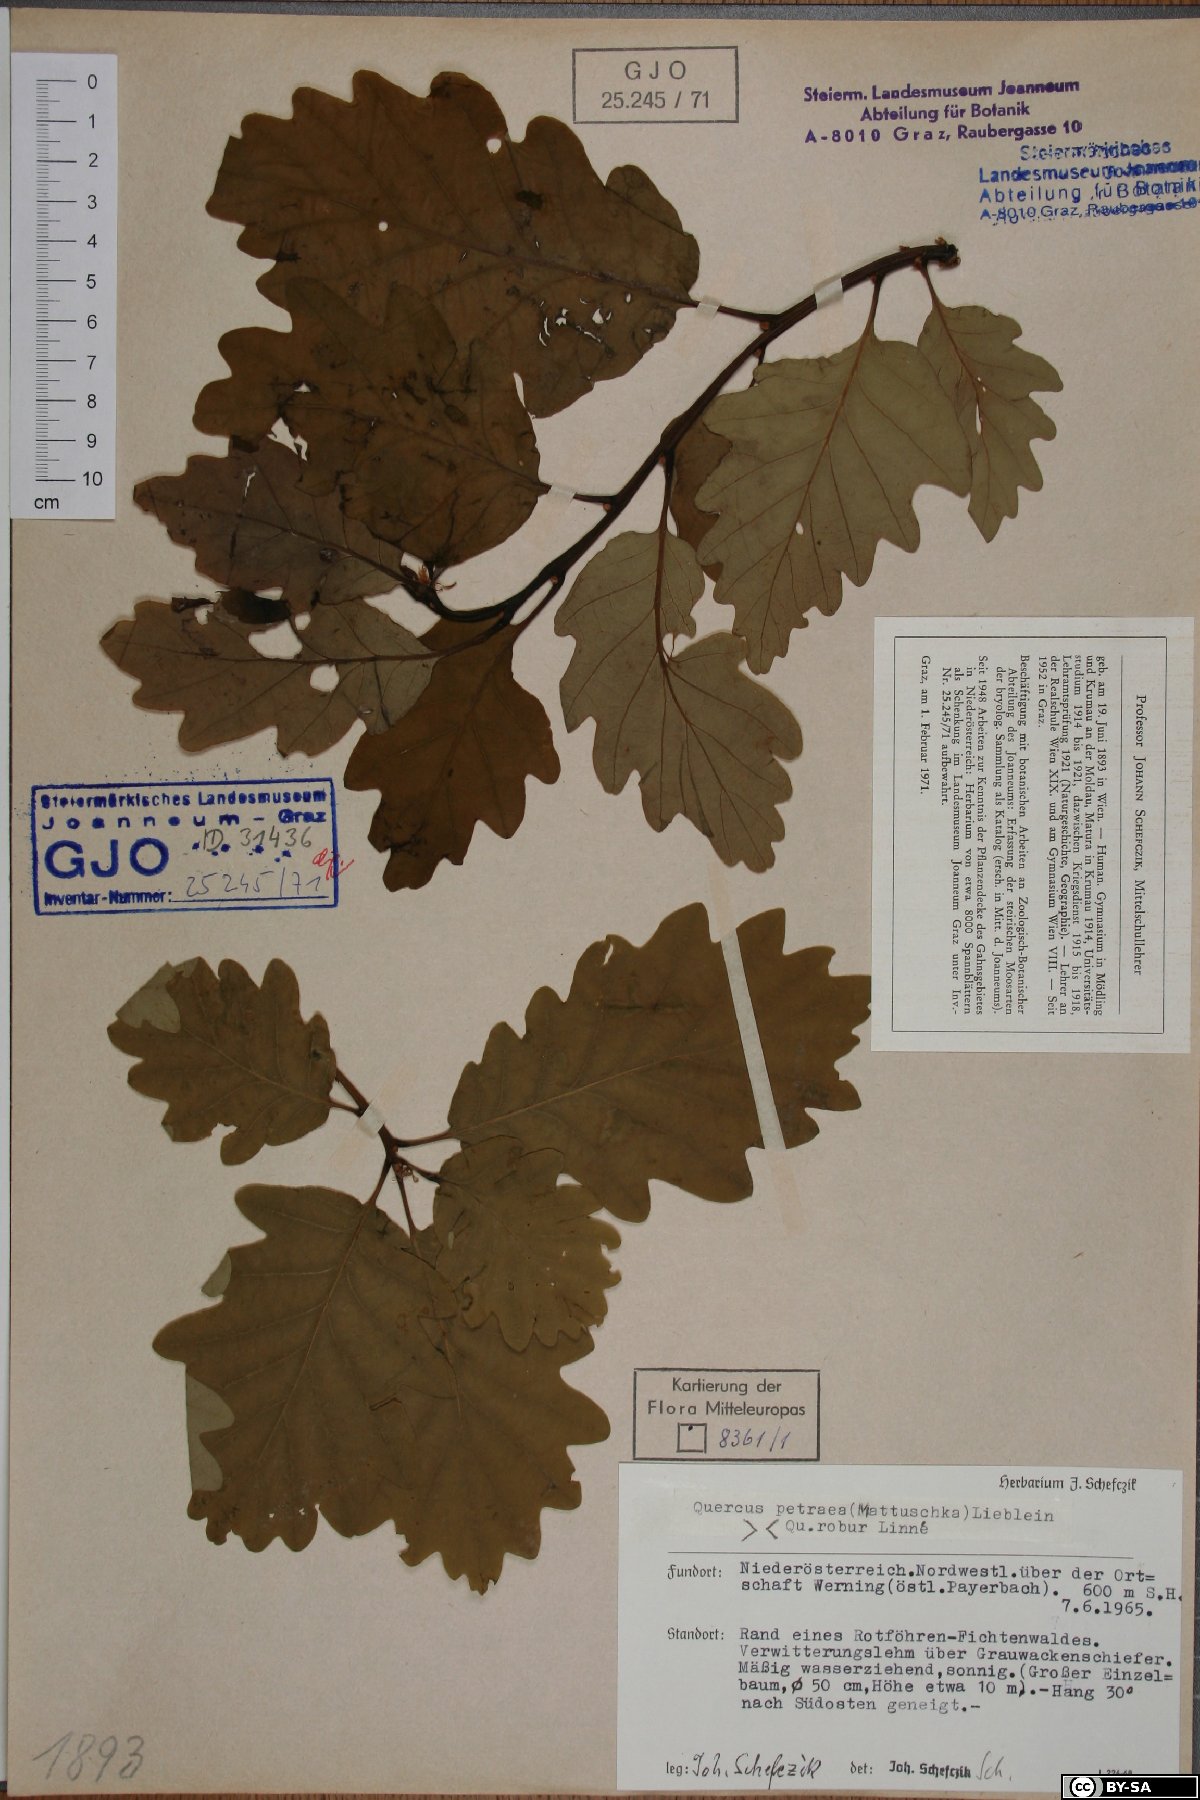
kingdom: Plantae
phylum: Tracheophyta
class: Magnoliopsida
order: Fagales
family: Fagaceae
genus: Quercus
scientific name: Quercus petraea
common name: Sessile oak
